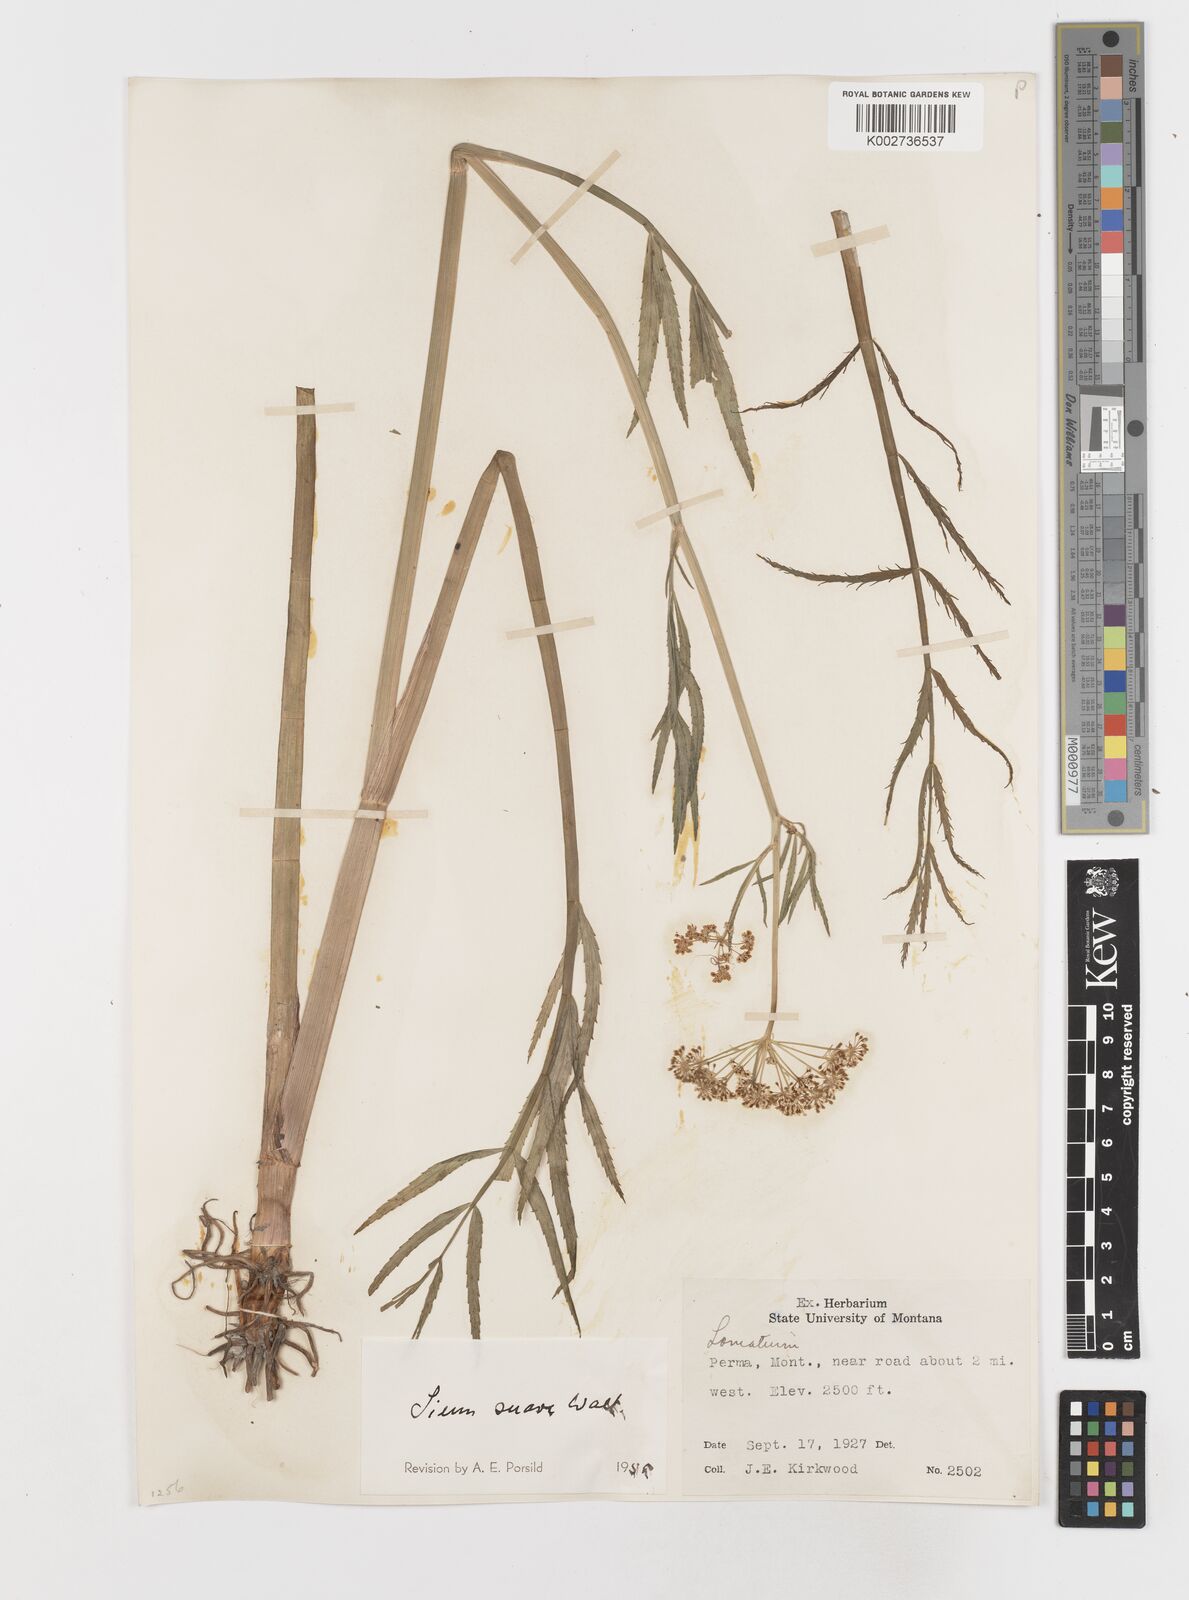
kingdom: Plantae
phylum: Tracheophyta
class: Magnoliopsida
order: Apiales
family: Apiaceae
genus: Sium
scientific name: Sium suave
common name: Hemlock water-parsnip
